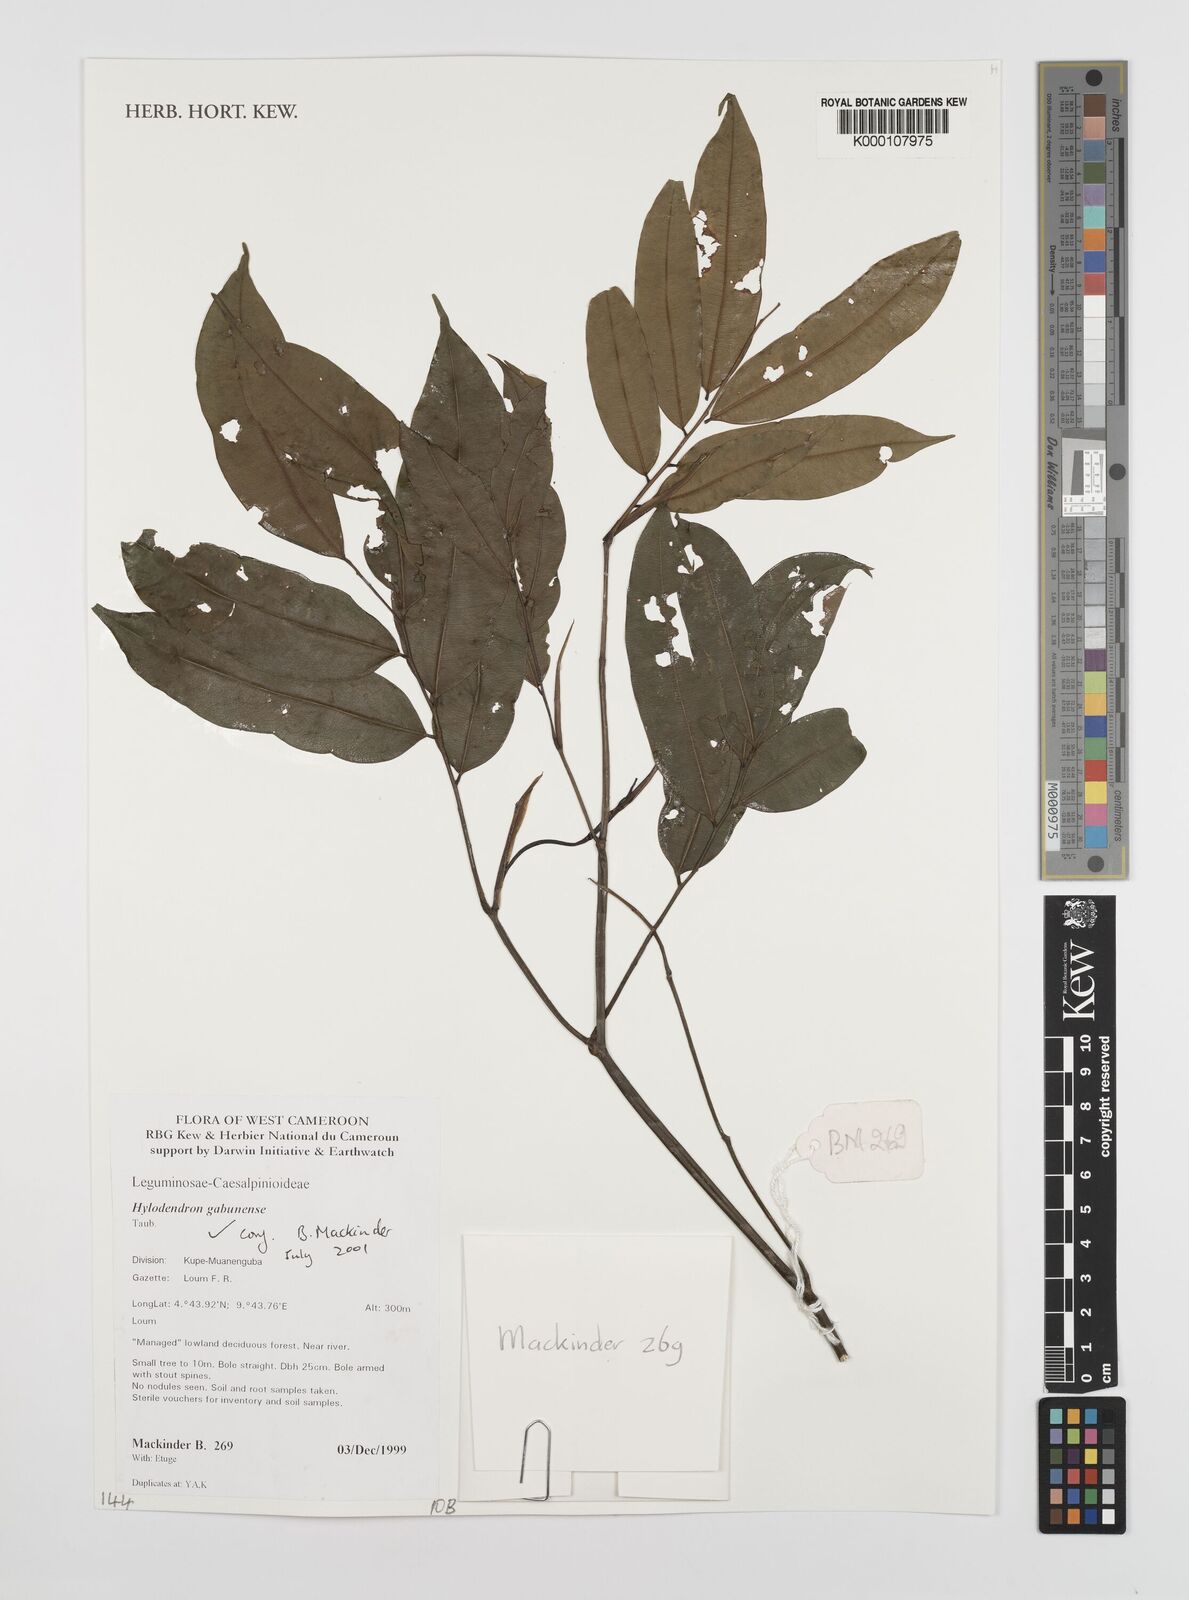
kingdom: Plantae
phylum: Tracheophyta
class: Magnoliopsida
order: Fabales
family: Fabaceae
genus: Hylodendron
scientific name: Hylodendron gabunense
